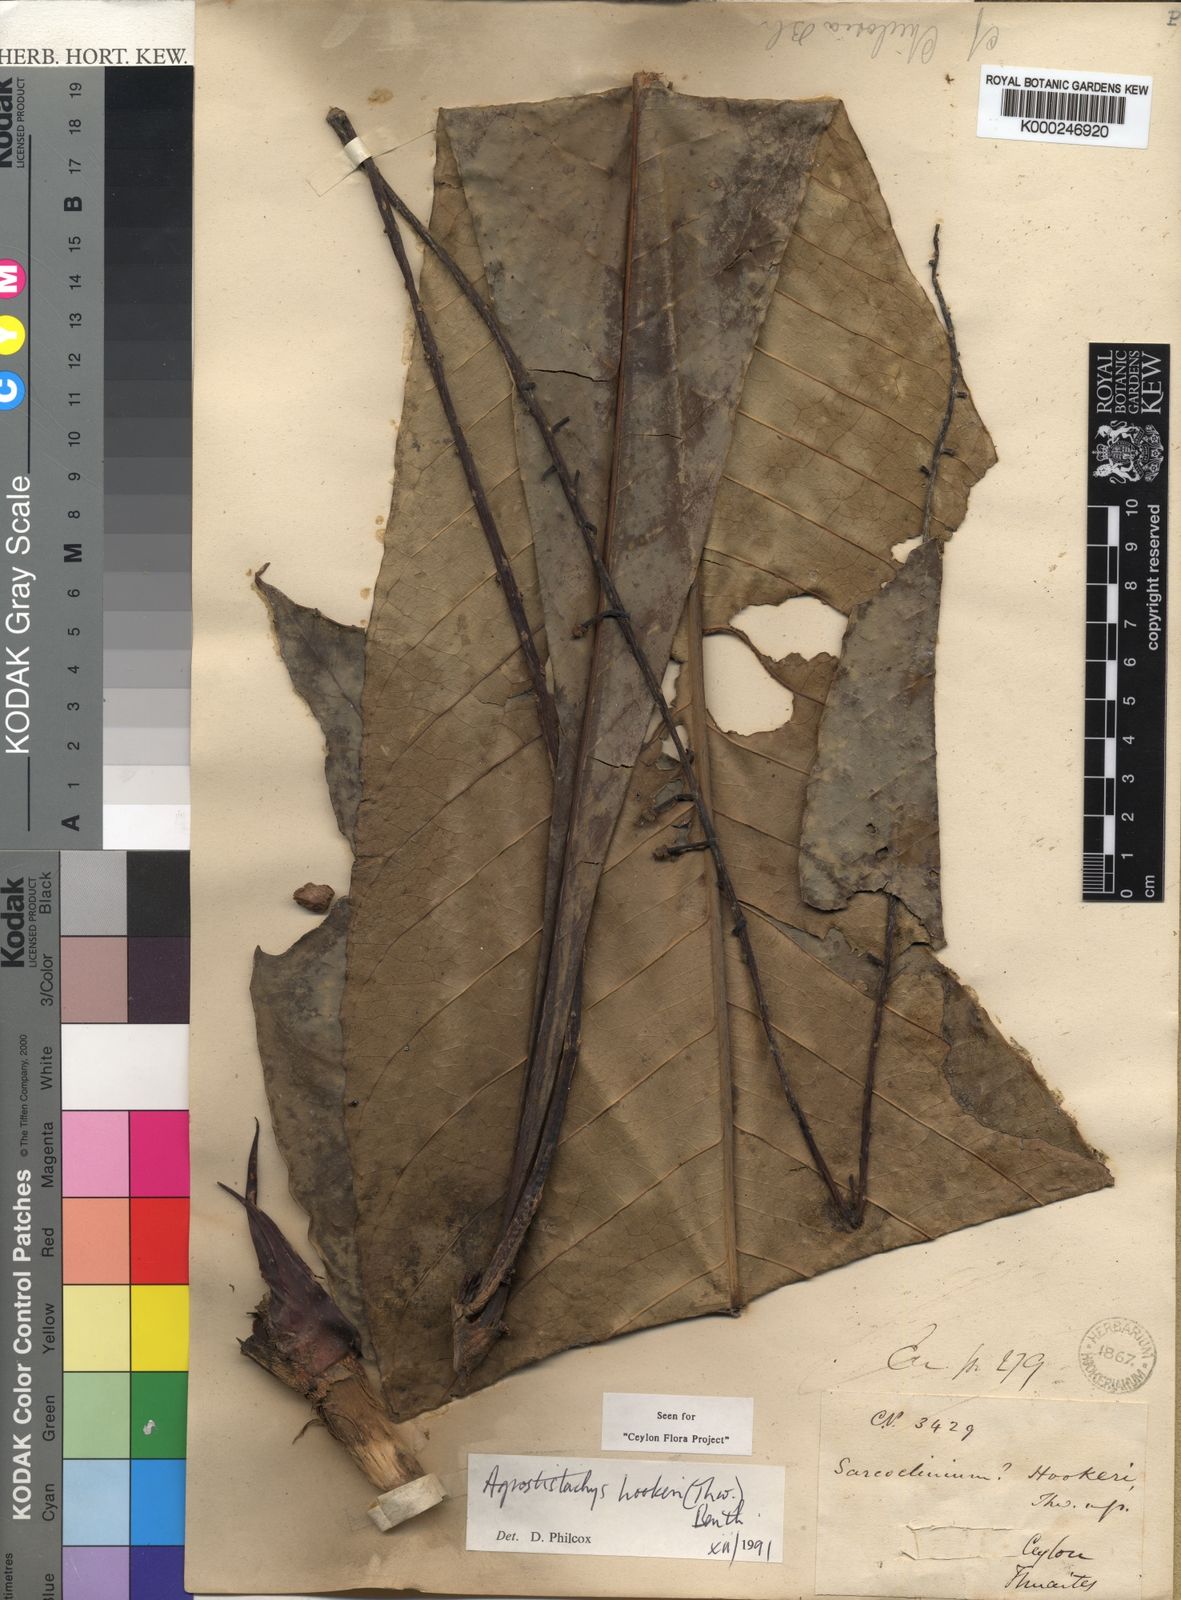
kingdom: Plantae
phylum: Tracheophyta
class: Magnoliopsida
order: Malpighiales
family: Euphorbiaceae
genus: Agrostistachys
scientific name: Agrostistachys
